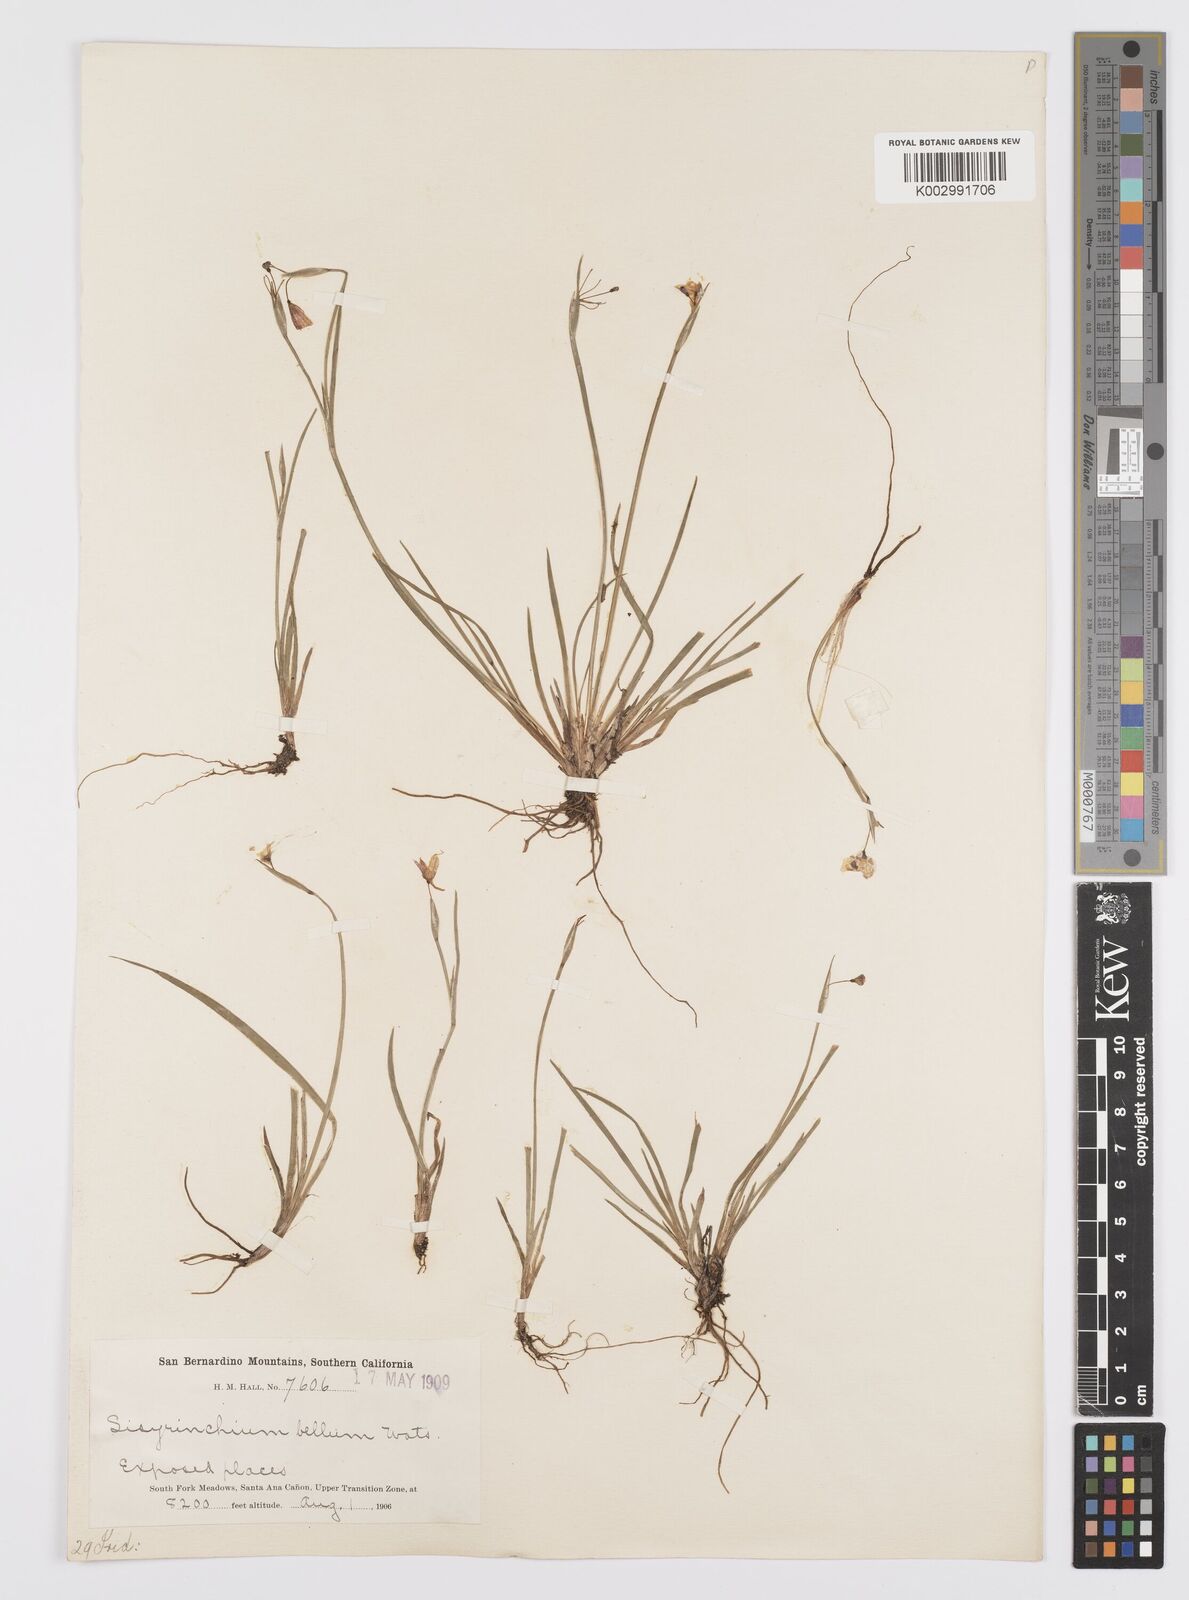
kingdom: Plantae
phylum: Tracheophyta
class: Liliopsida
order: Asparagales
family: Iridaceae
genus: Sisyrinchium
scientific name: Sisyrinchium bellum
